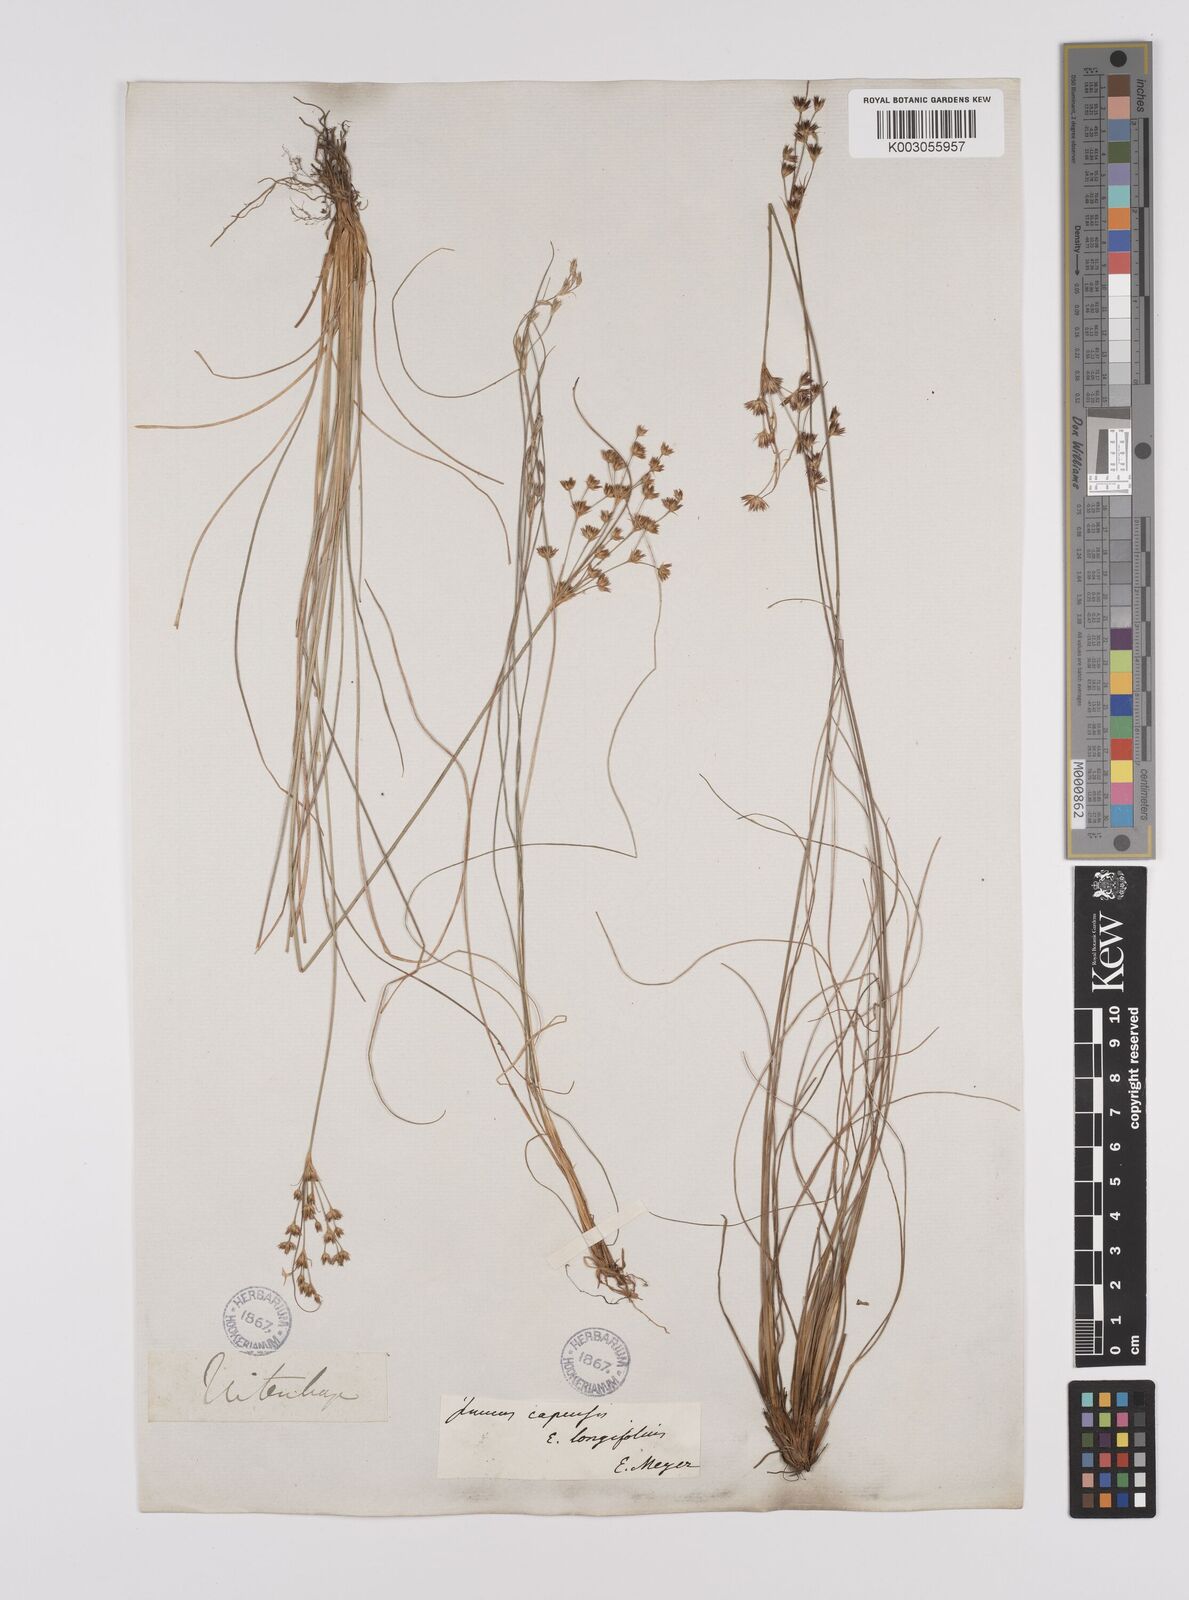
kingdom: Plantae
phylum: Tracheophyta
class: Liliopsida
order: Poales
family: Juncaceae
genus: Juncus
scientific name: Juncus capensis
